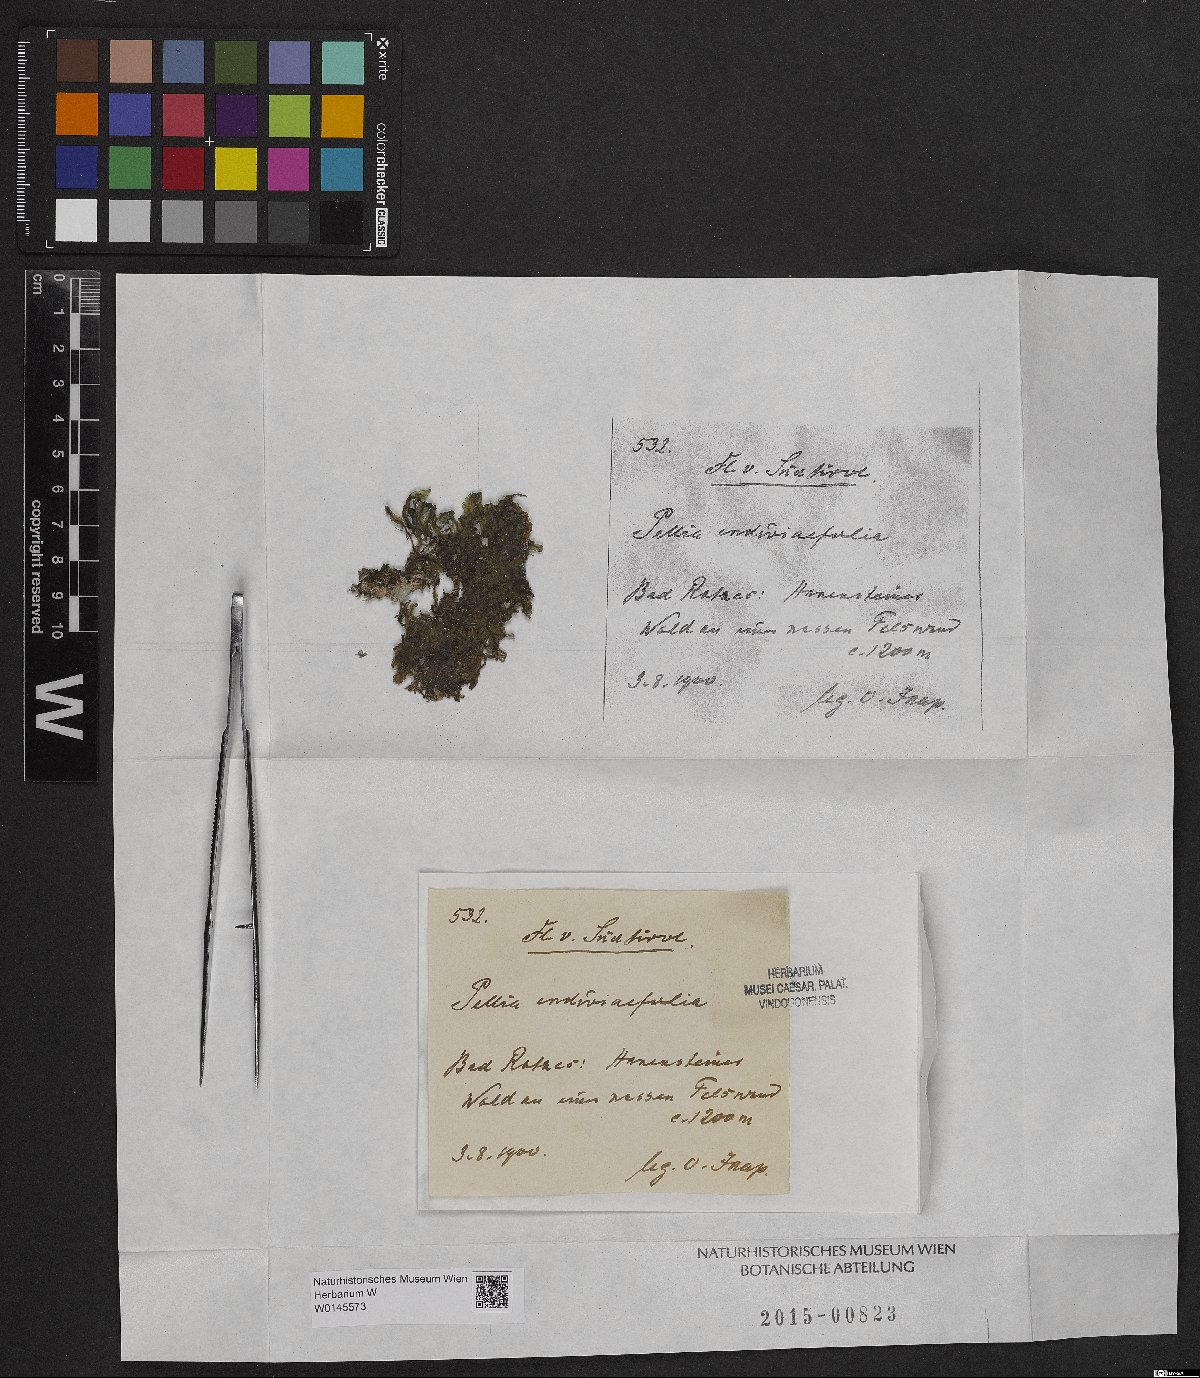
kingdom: Plantae
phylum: Marchantiophyta
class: Jungermanniopsida
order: Pelliales
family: Pelliaceae
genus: Apopellia
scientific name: Apopellia endiviifolia
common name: Endive pellia
